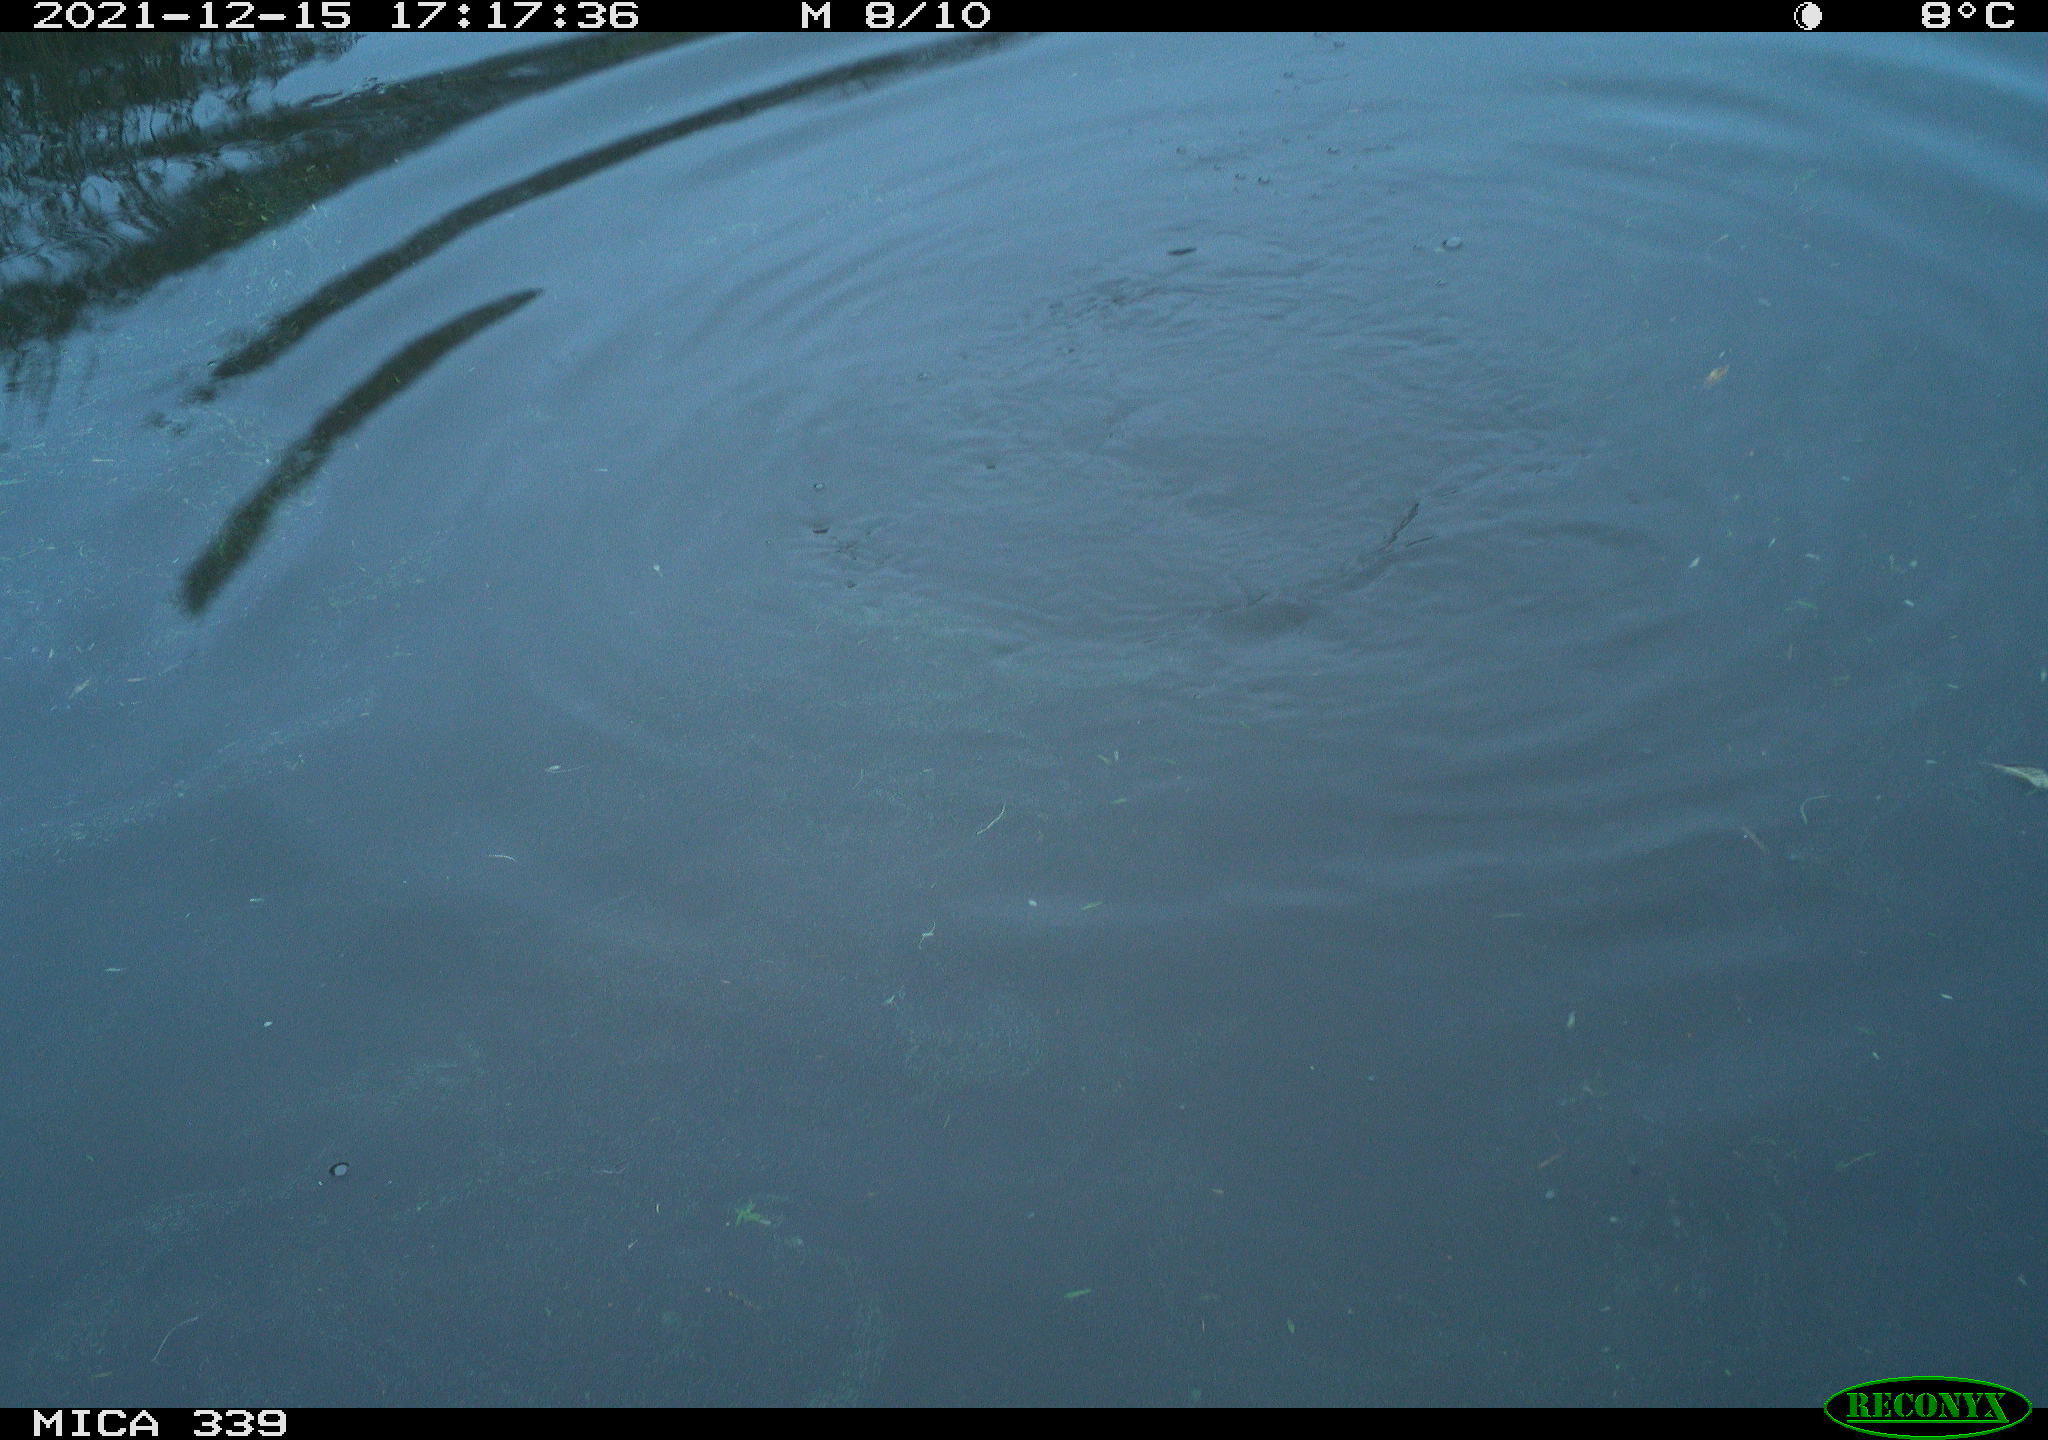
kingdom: Animalia
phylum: Chordata
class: Aves
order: Suliformes
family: Phalacrocoracidae
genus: Phalacrocorax
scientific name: Phalacrocorax carbo
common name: Great cormorant
